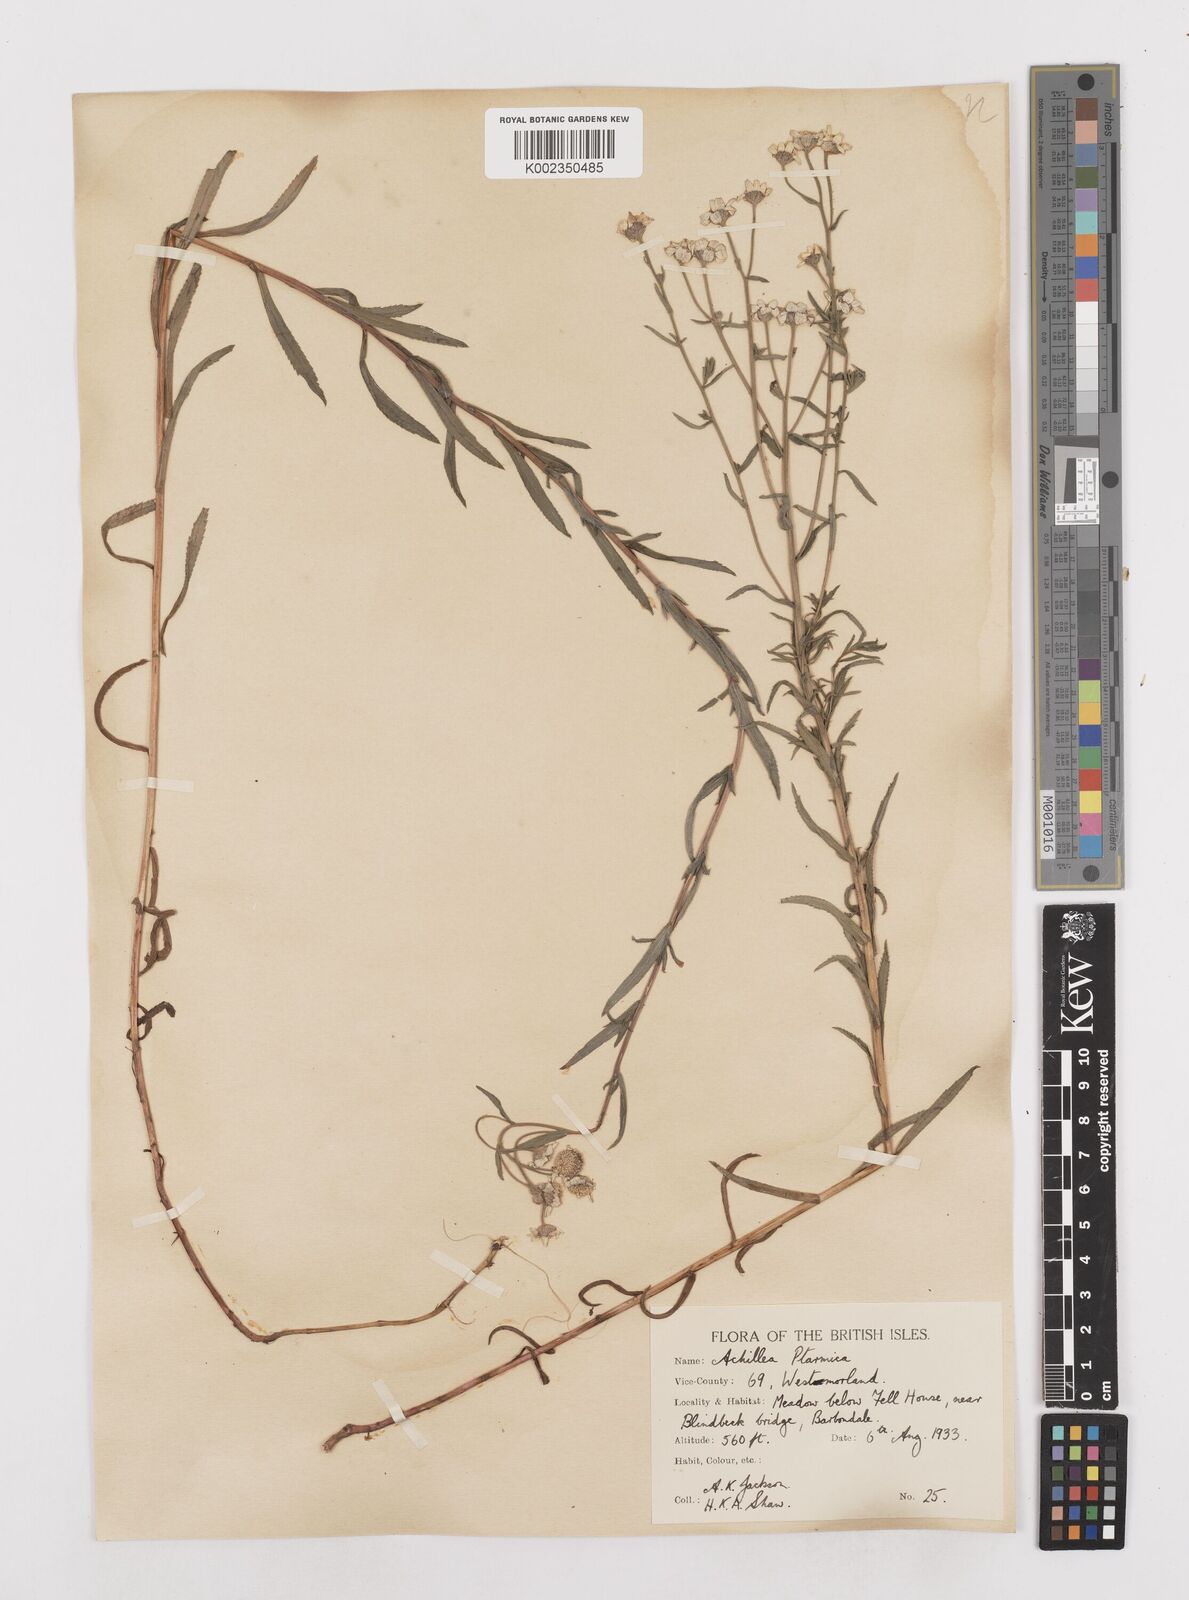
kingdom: Plantae
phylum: Tracheophyta
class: Magnoliopsida
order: Asterales
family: Asteraceae
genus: Achillea
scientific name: Achillea ptarmica
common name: Sneezeweed
